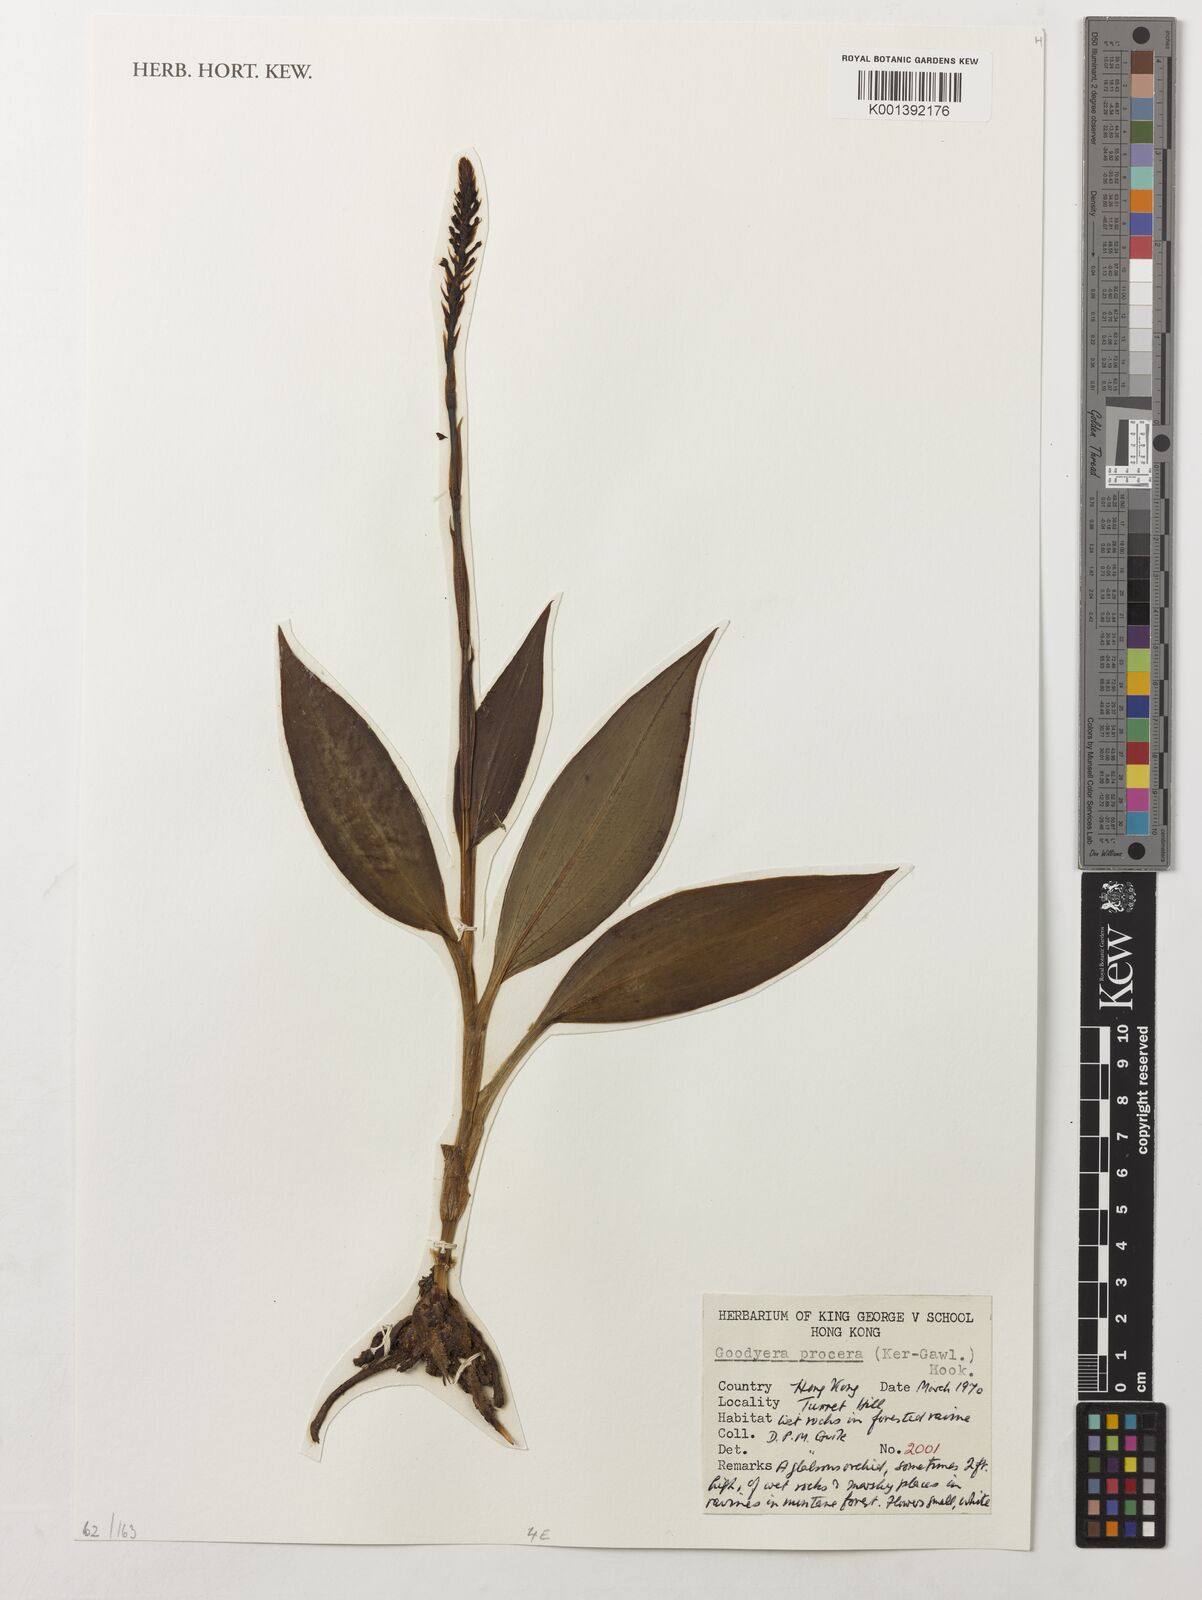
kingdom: Plantae
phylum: Tracheophyta
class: Liliopsida
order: Asparagales
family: Orchidaceae
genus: Goodyera
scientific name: Goodyera procera
